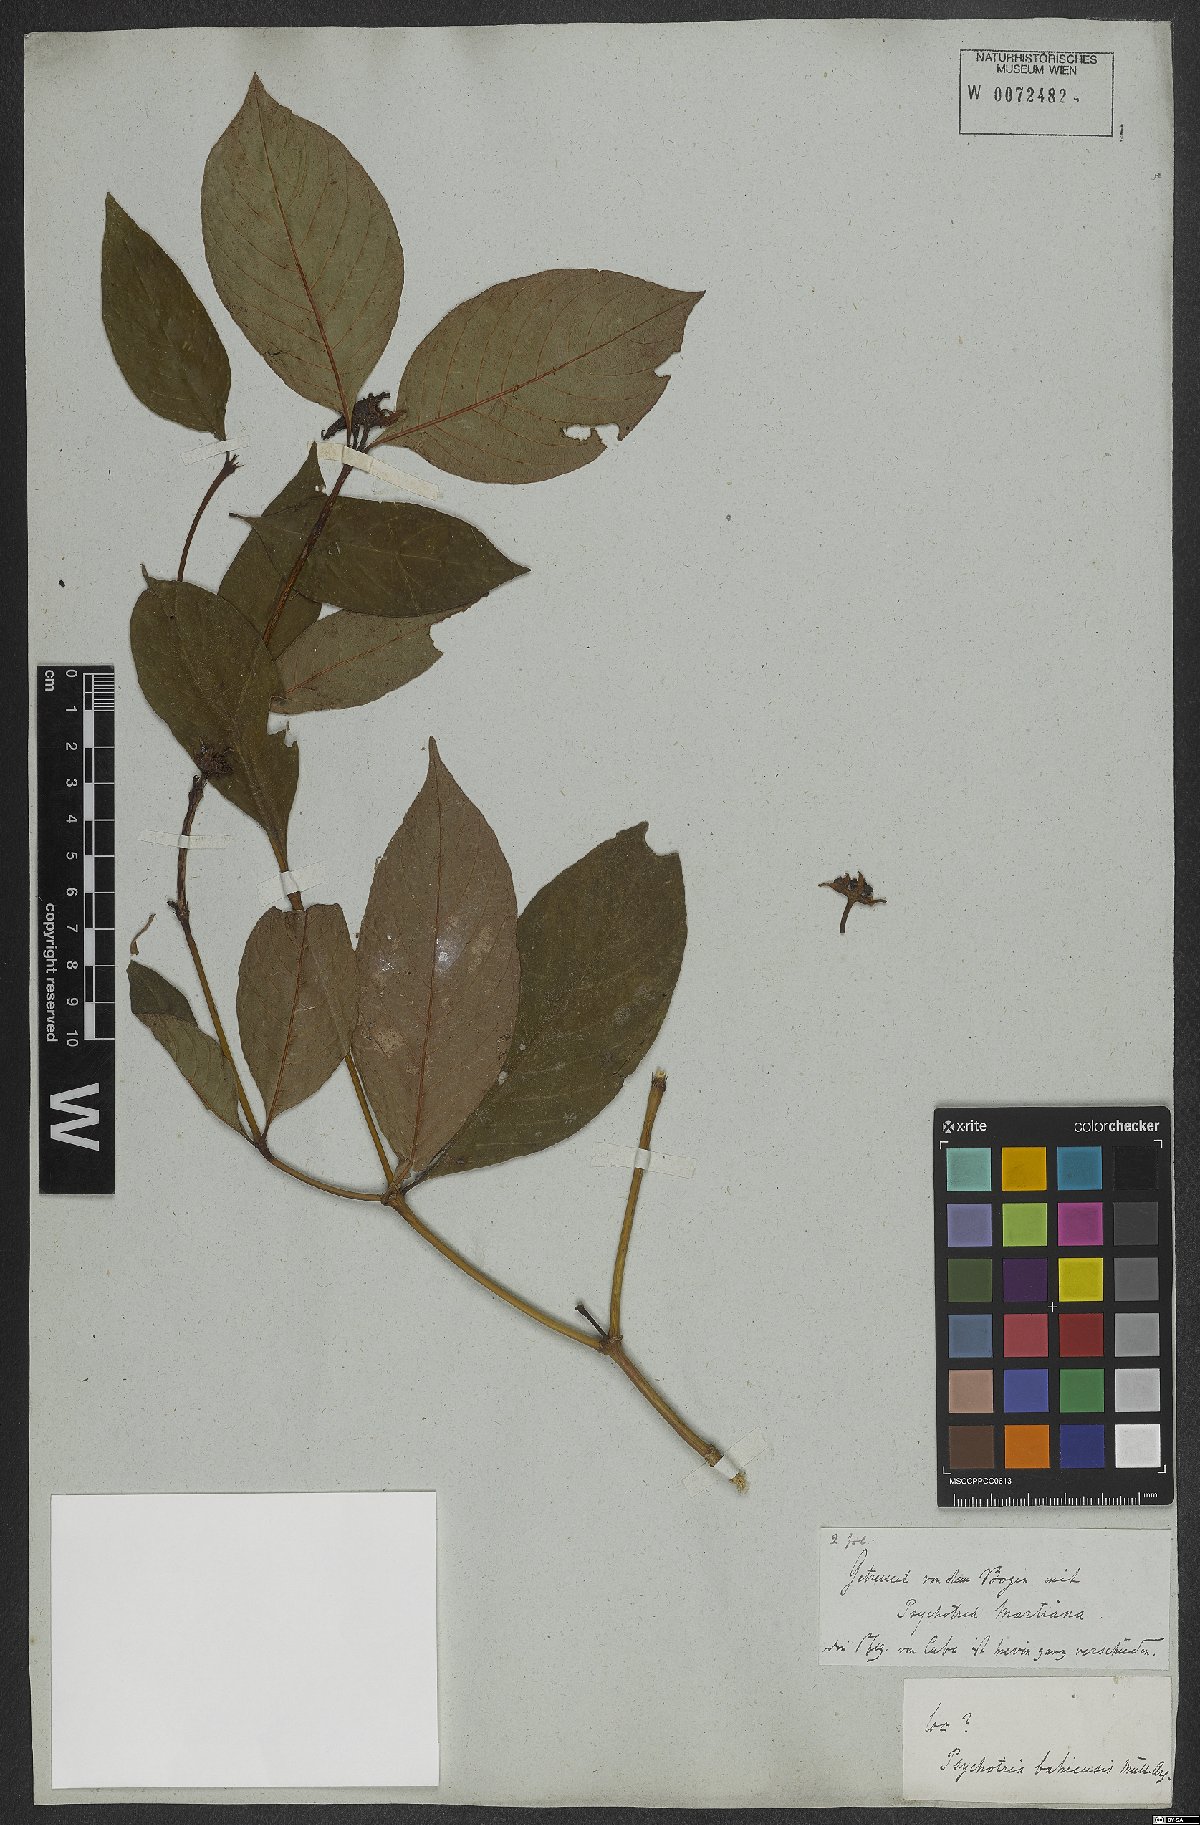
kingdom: Plantae
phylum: Tracheophyta
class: Magnoliopsida
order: Gentianales
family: Rubiaceae
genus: Psychotria
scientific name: Psychotria bahiensis
